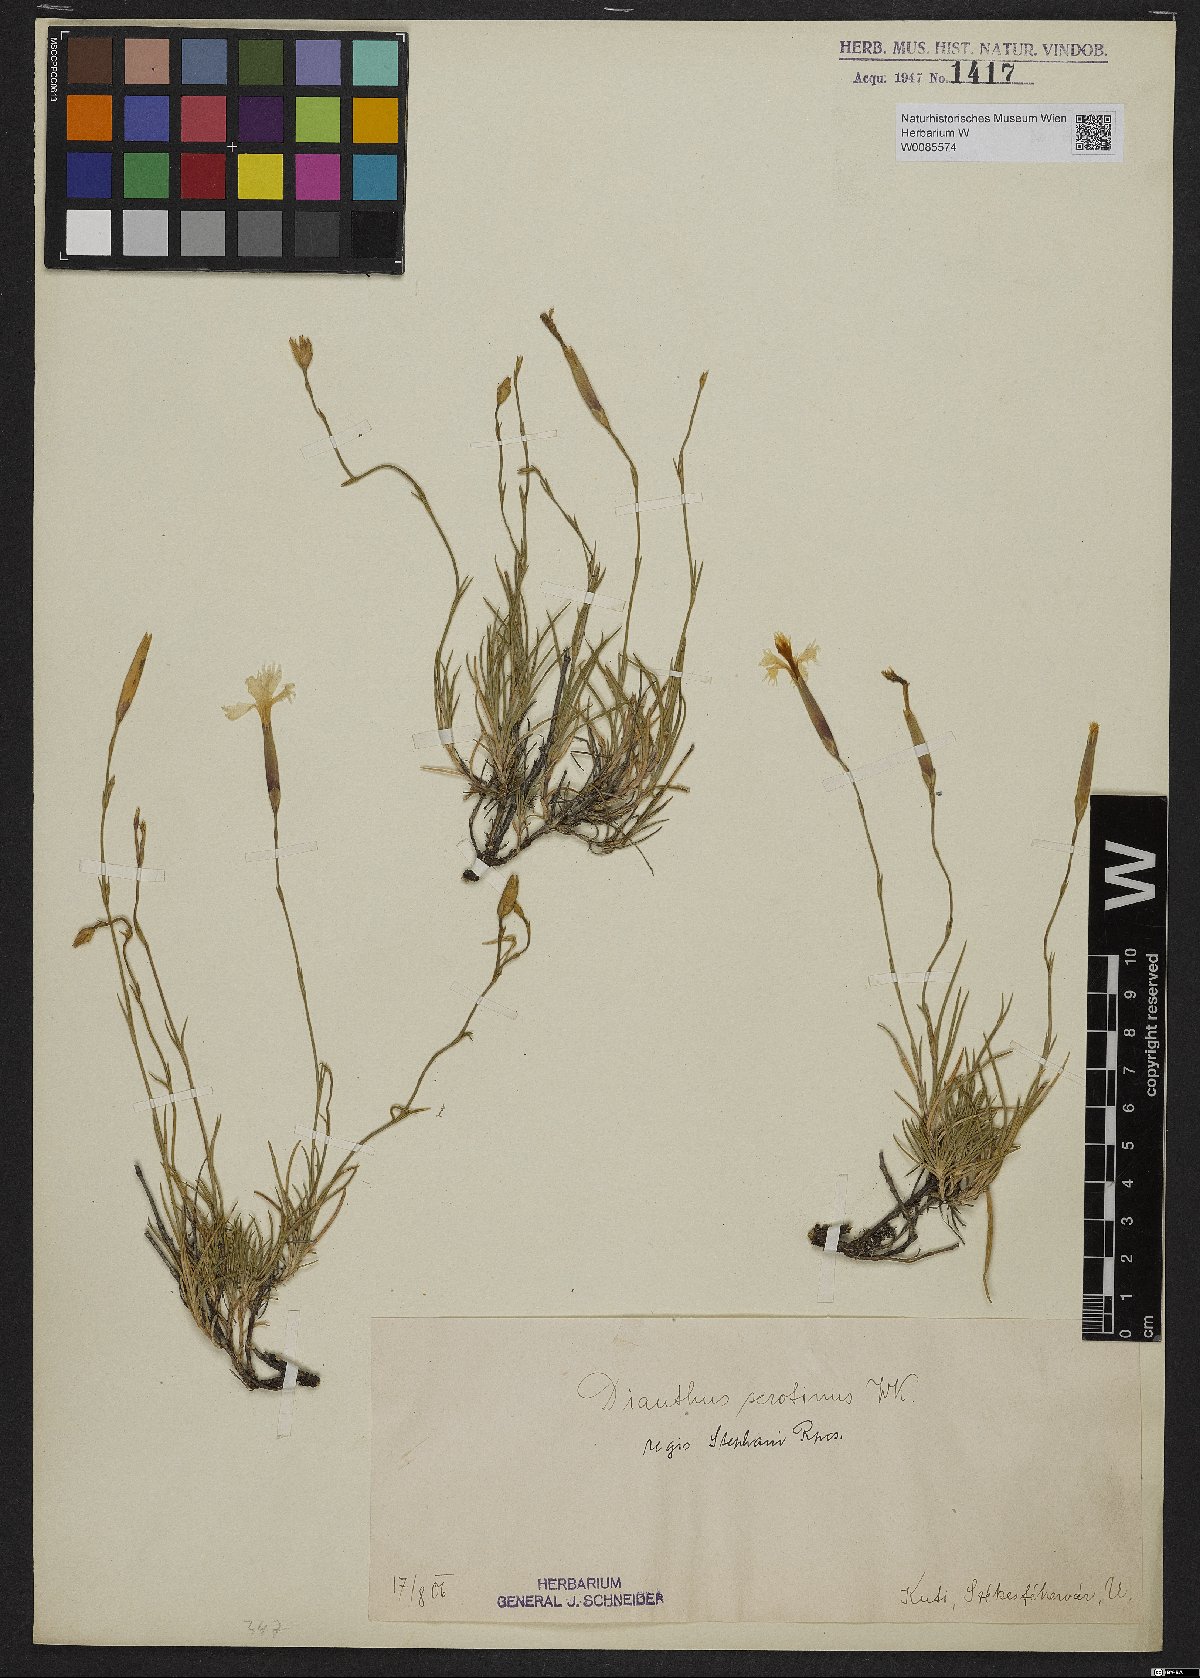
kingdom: Plantae
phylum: Tracheophyta
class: Magnoliopsida
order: Caryophyllales
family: Caryophyllaceae
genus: Dianthus
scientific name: Dianthus plumarius
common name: Pink
